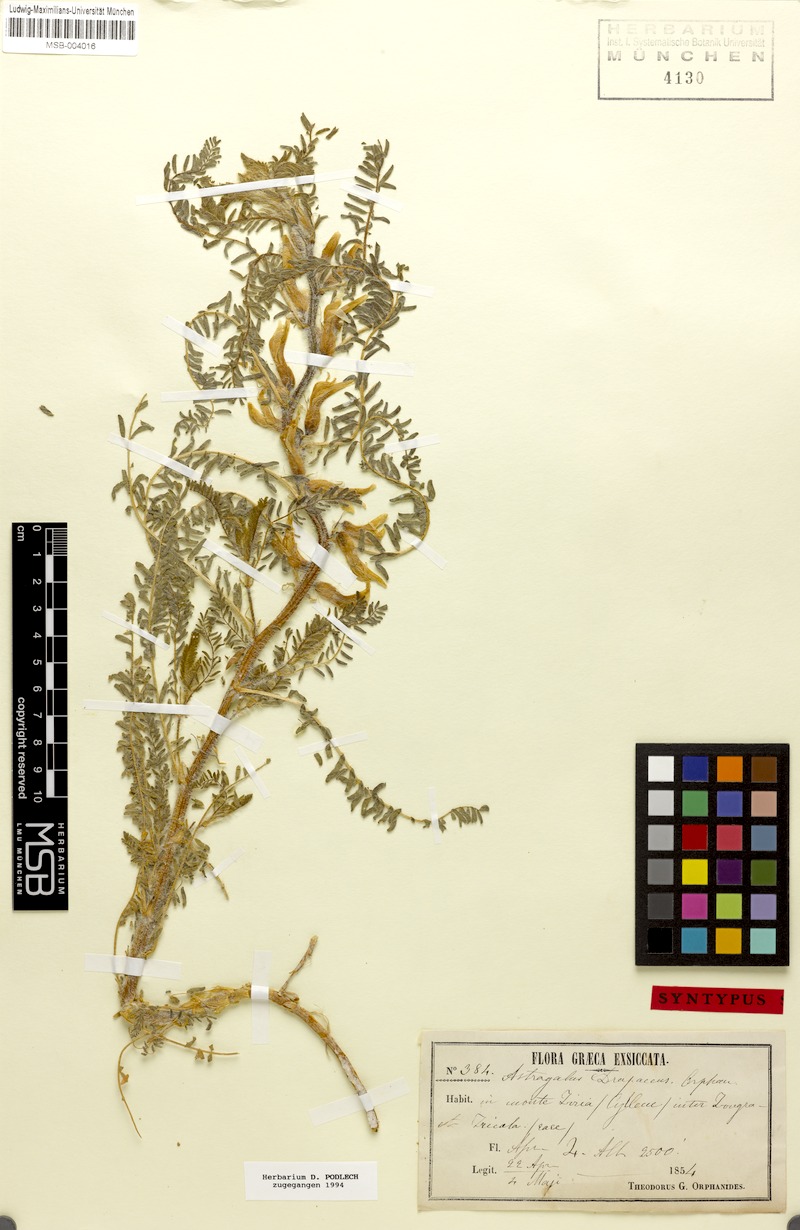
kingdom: Plantae
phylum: Tracheophyta
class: Magnoliopsida
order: Fabales
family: Fabaceae
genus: Astragalus
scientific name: Astragalus drupaceus
